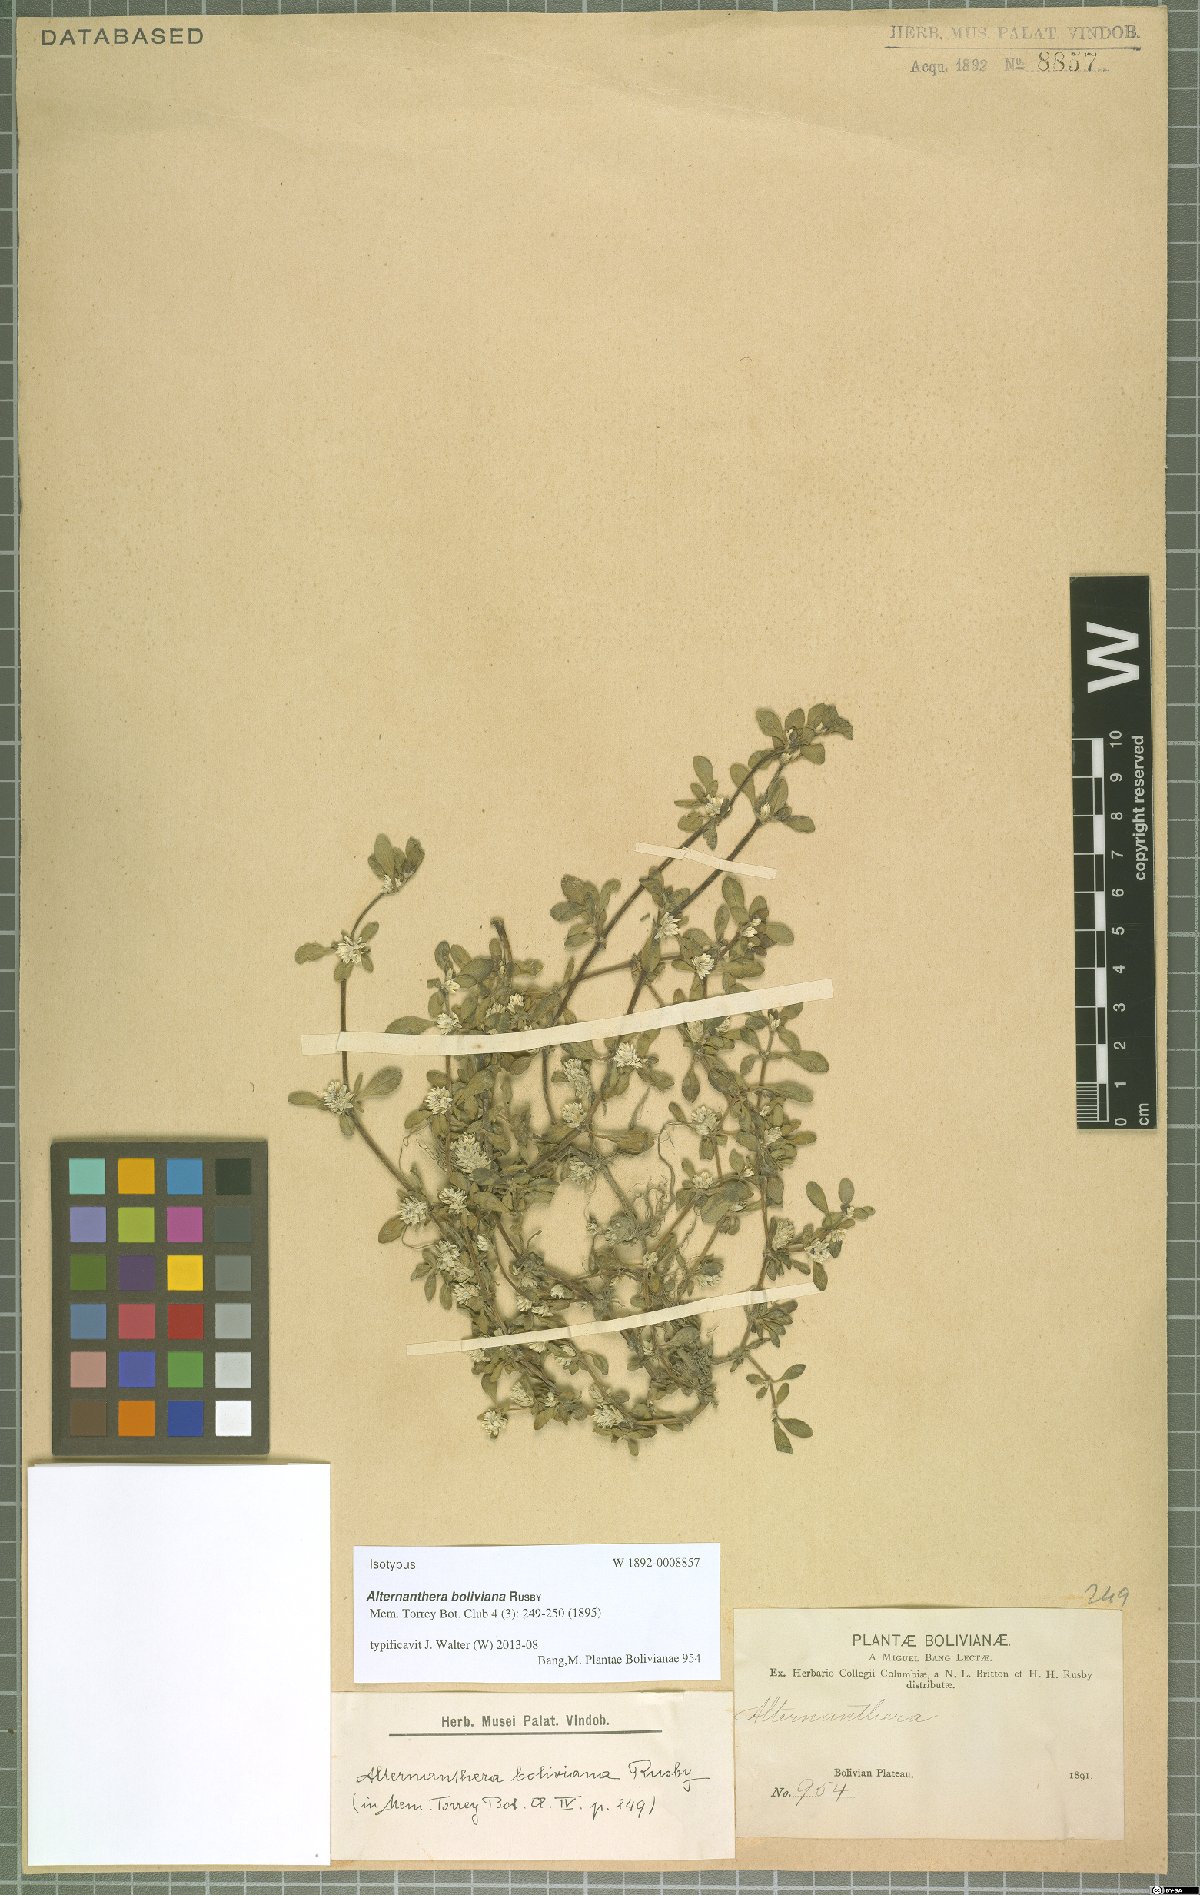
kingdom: Plantae
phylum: Tracheophyta
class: Magnoliopsida
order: Caryophyllales
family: Amaranthaceae
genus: Alternanthera
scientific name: Alternanthera paronychioides
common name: Smooth joyweed
